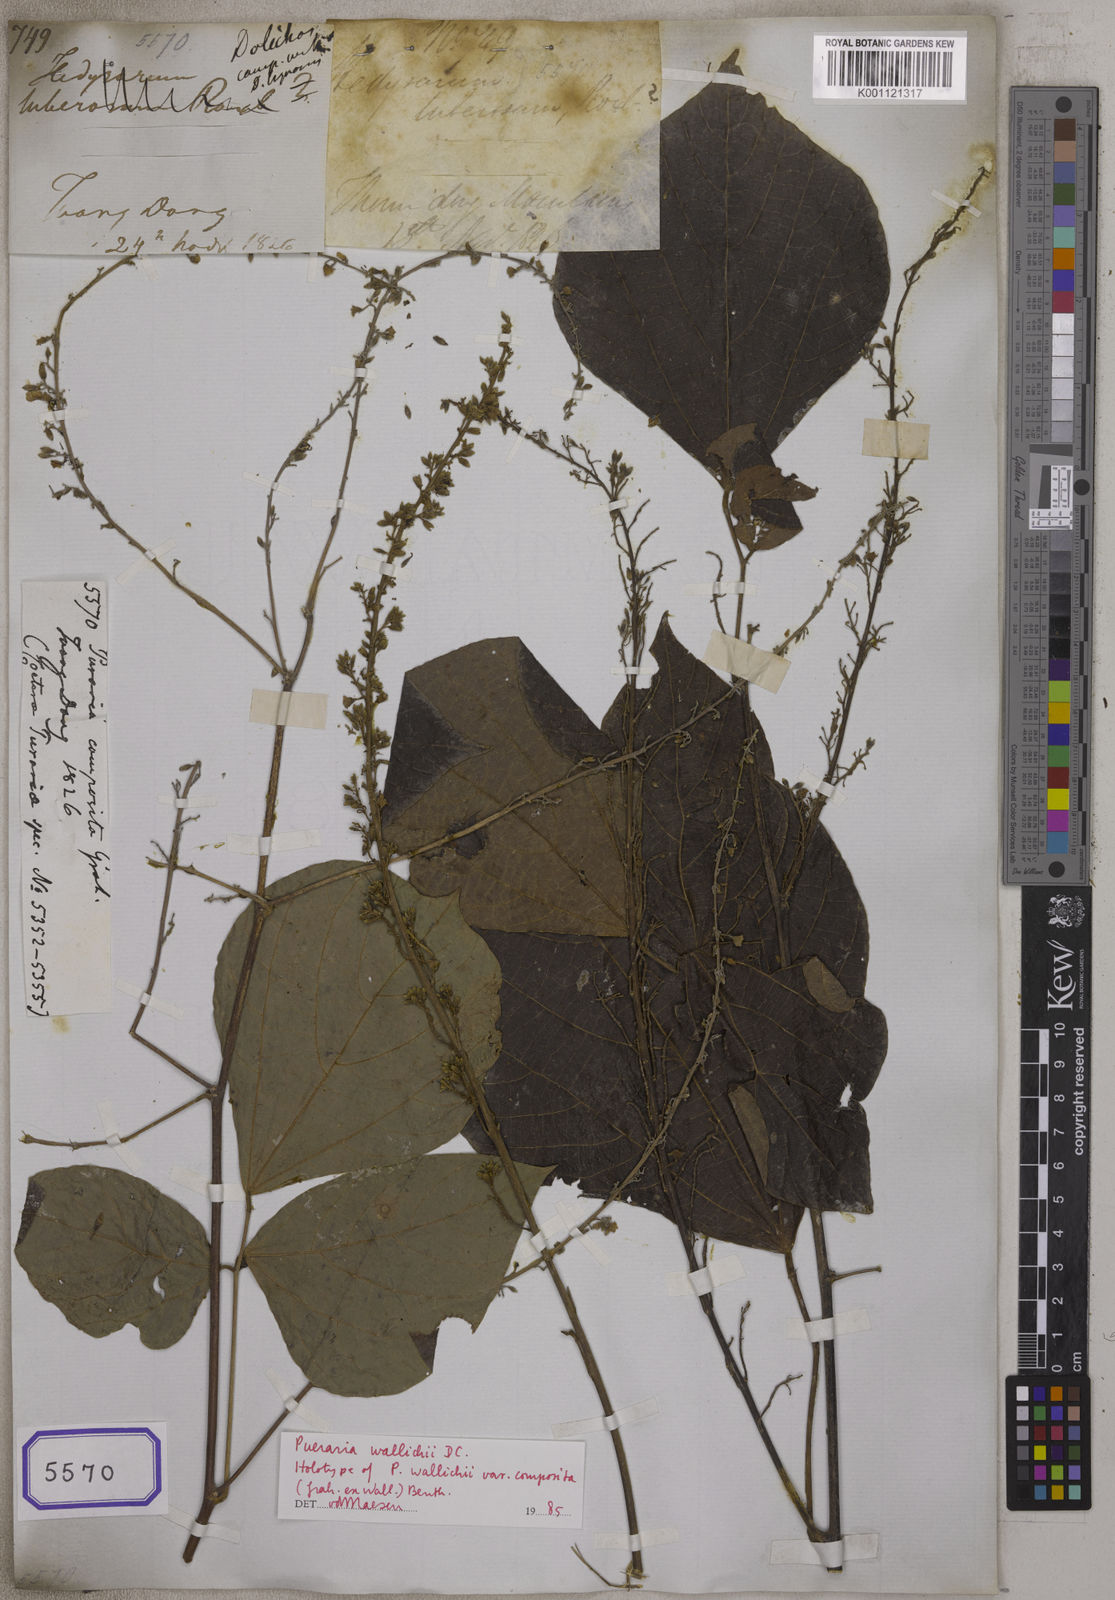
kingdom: Plantae
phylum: Tracheophyta
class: Magnoliopsida
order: Fabales
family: Fabaceae
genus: Pueraria
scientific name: Pueraria
